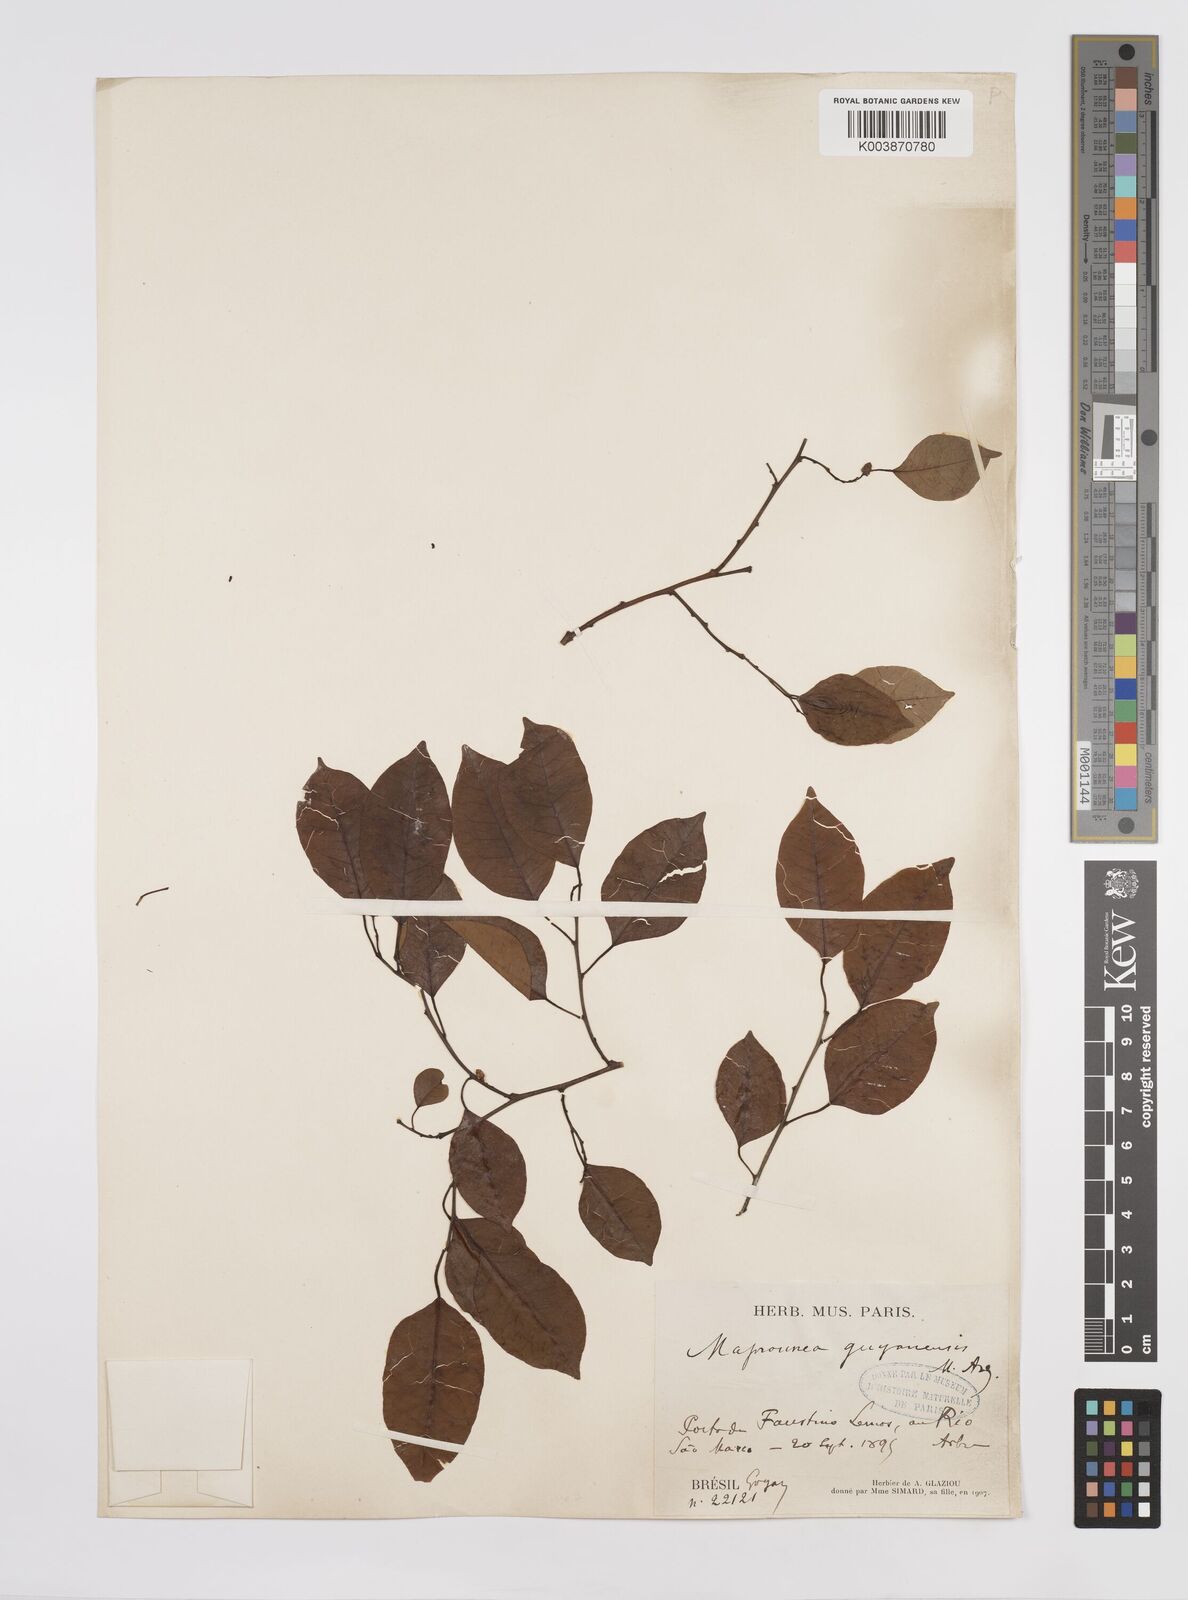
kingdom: Plantae
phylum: Tracheophyta
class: Magnoliopsida
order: Malpighiales
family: Euphorbiaceae
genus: Maprounea
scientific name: Maprounea guianensis
